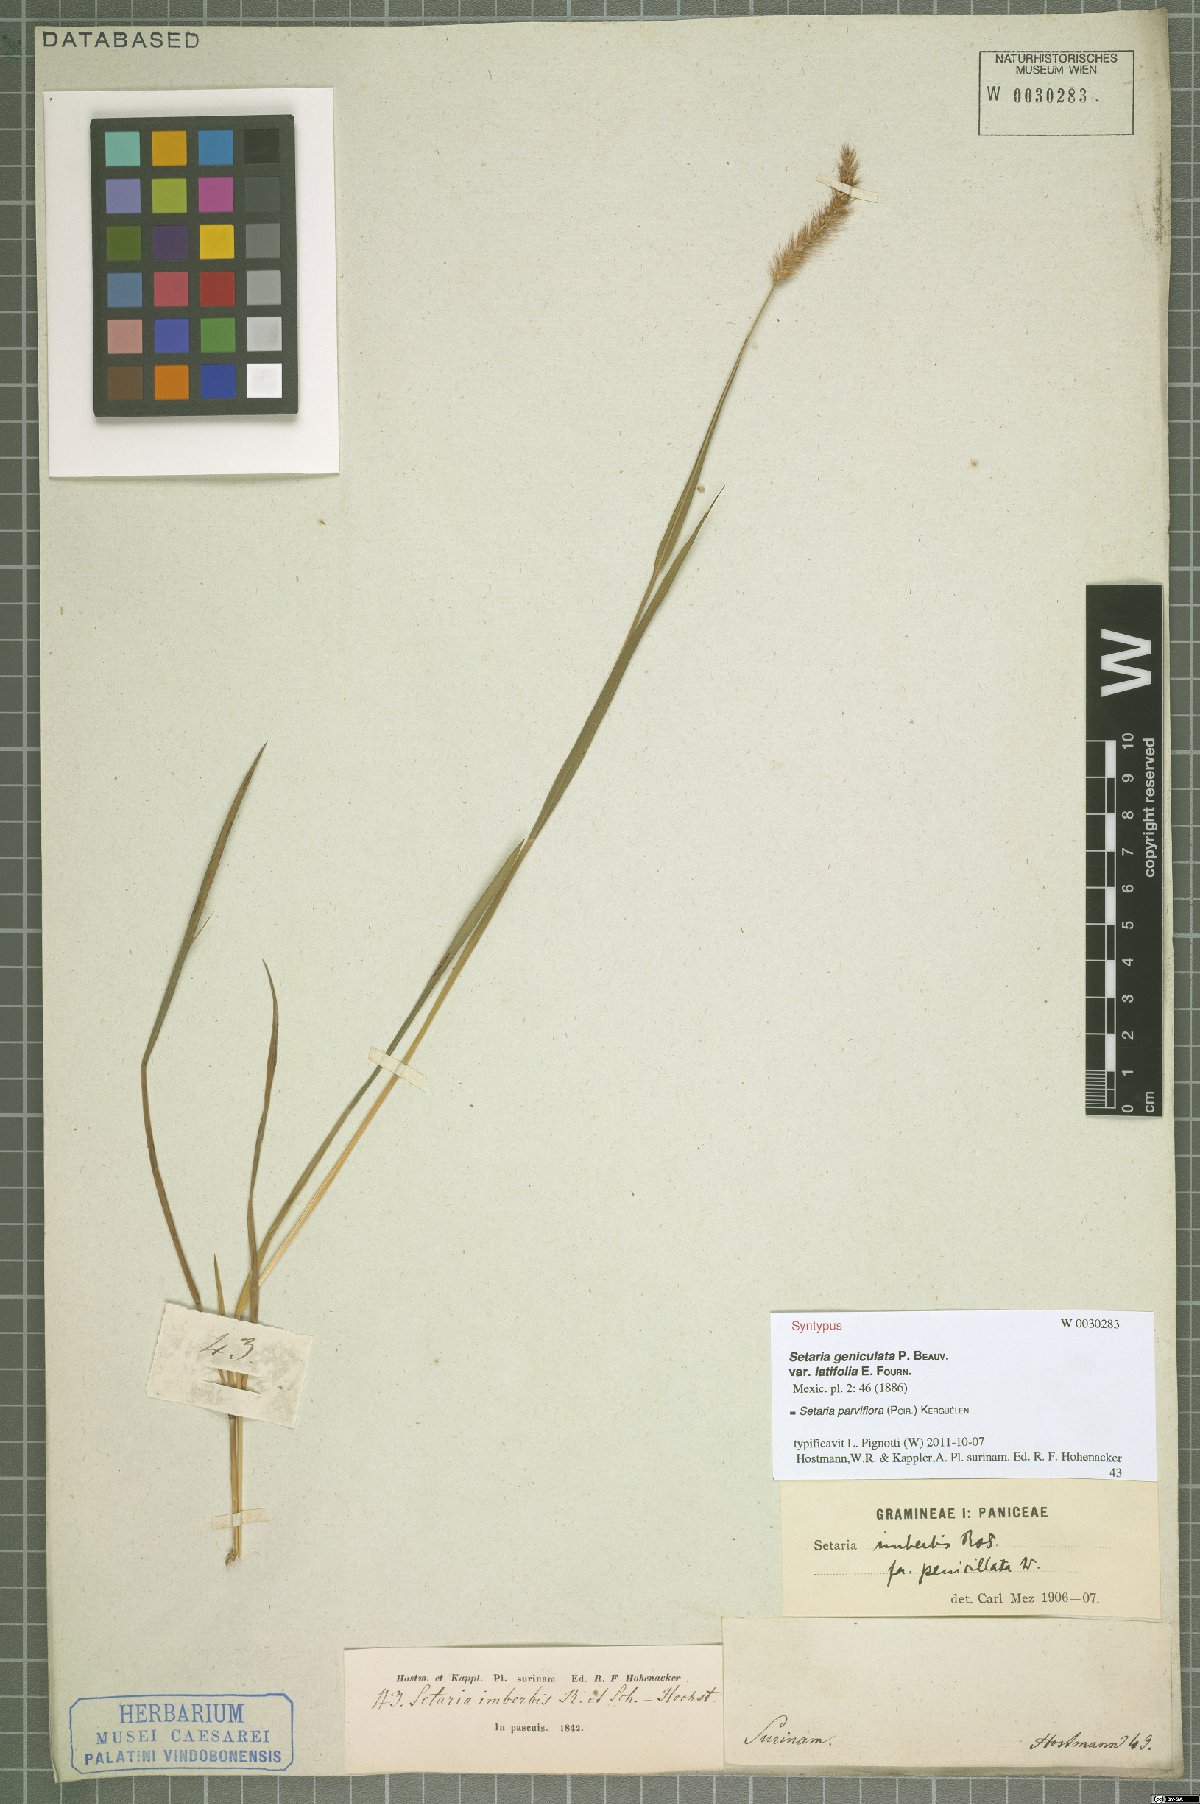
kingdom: Plantae
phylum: Tracheophyta
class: Liliopsida
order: Poales
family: Poaceae
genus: Setaria
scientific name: Setaria parviflora
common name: Knotroot bristle-grass
